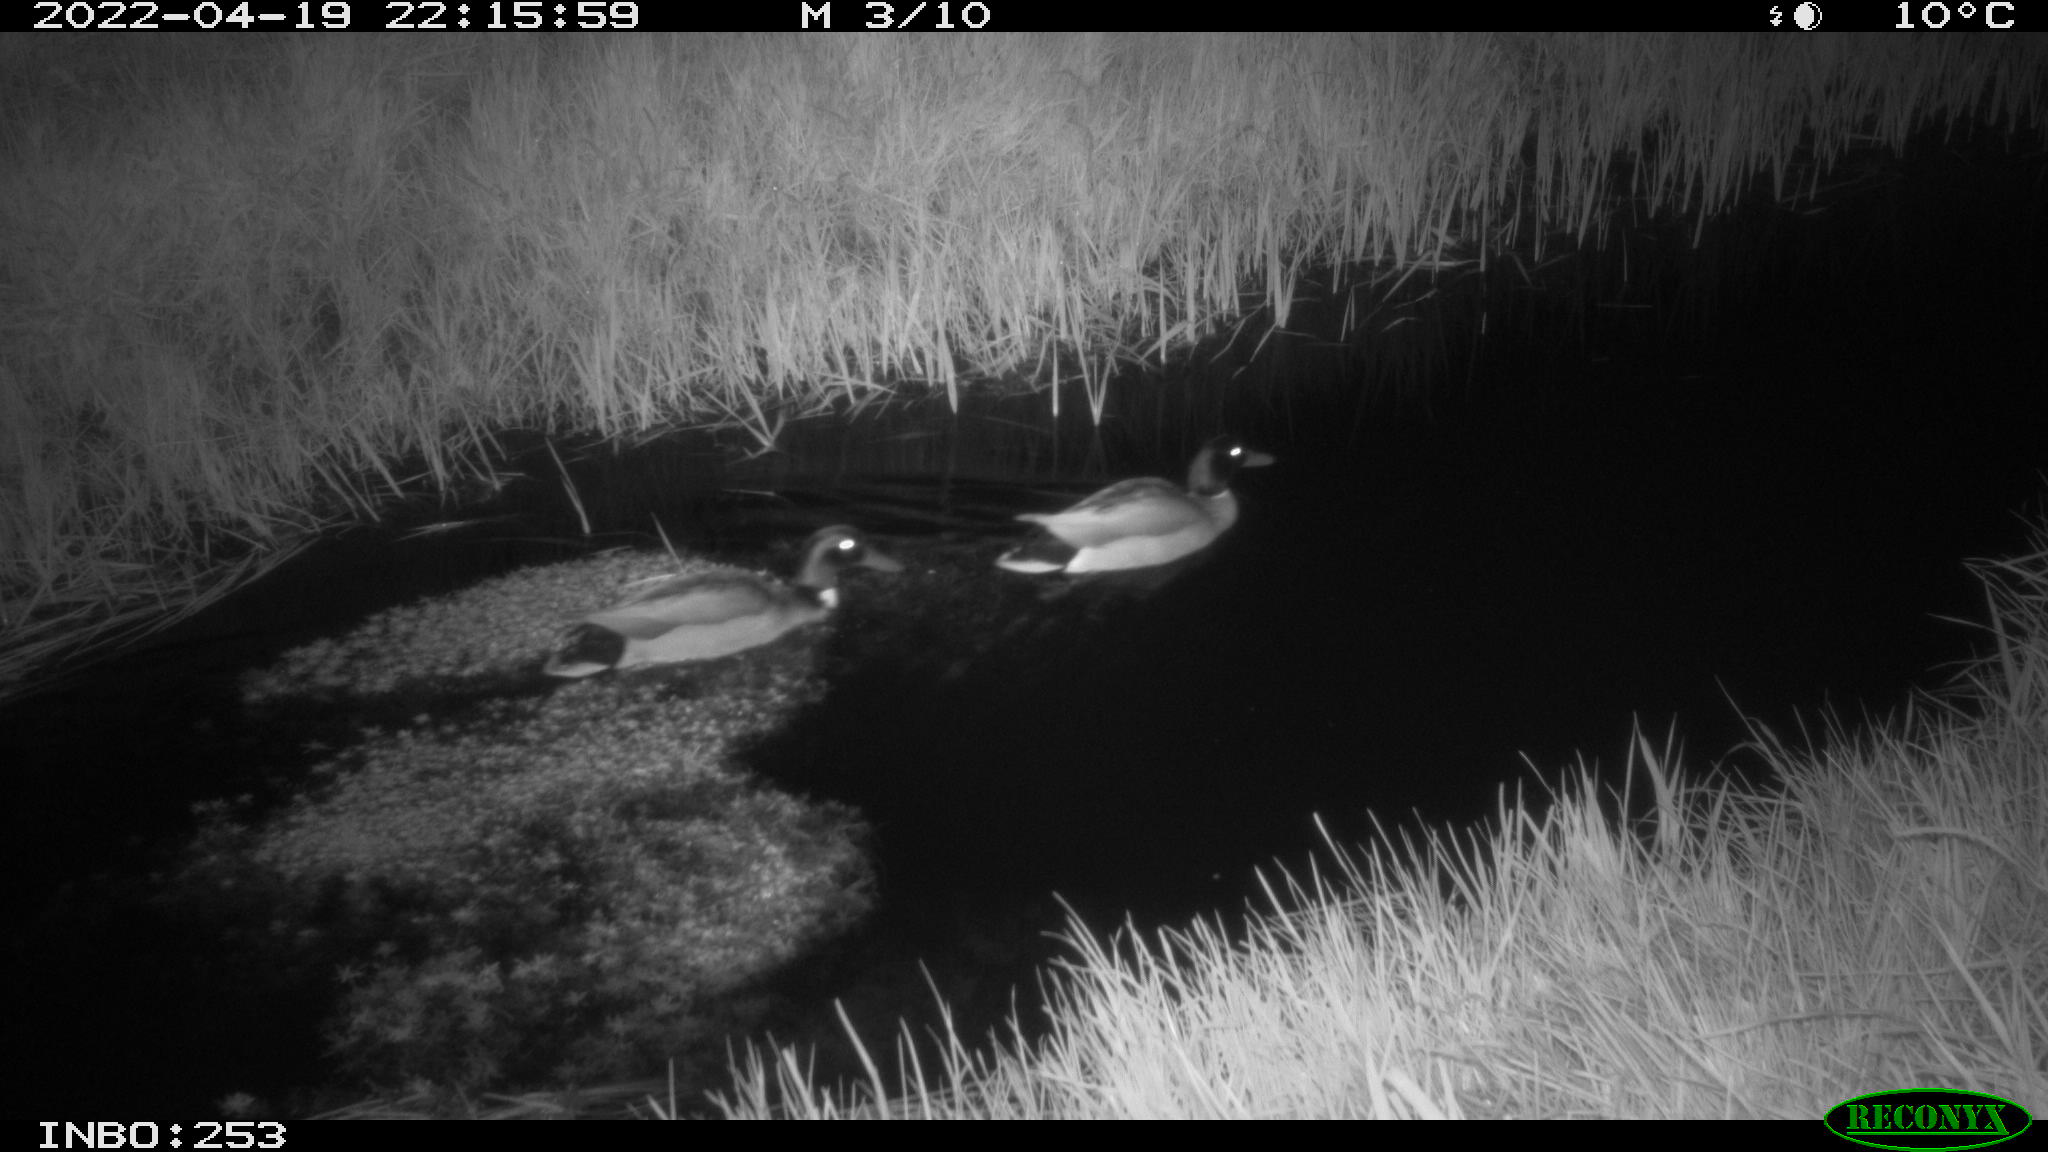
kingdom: Animalia
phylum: Chordata
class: Aves
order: Anseriformes
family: Anatidae
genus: Anas
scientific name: Anas platyrhynchos
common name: Mallard
